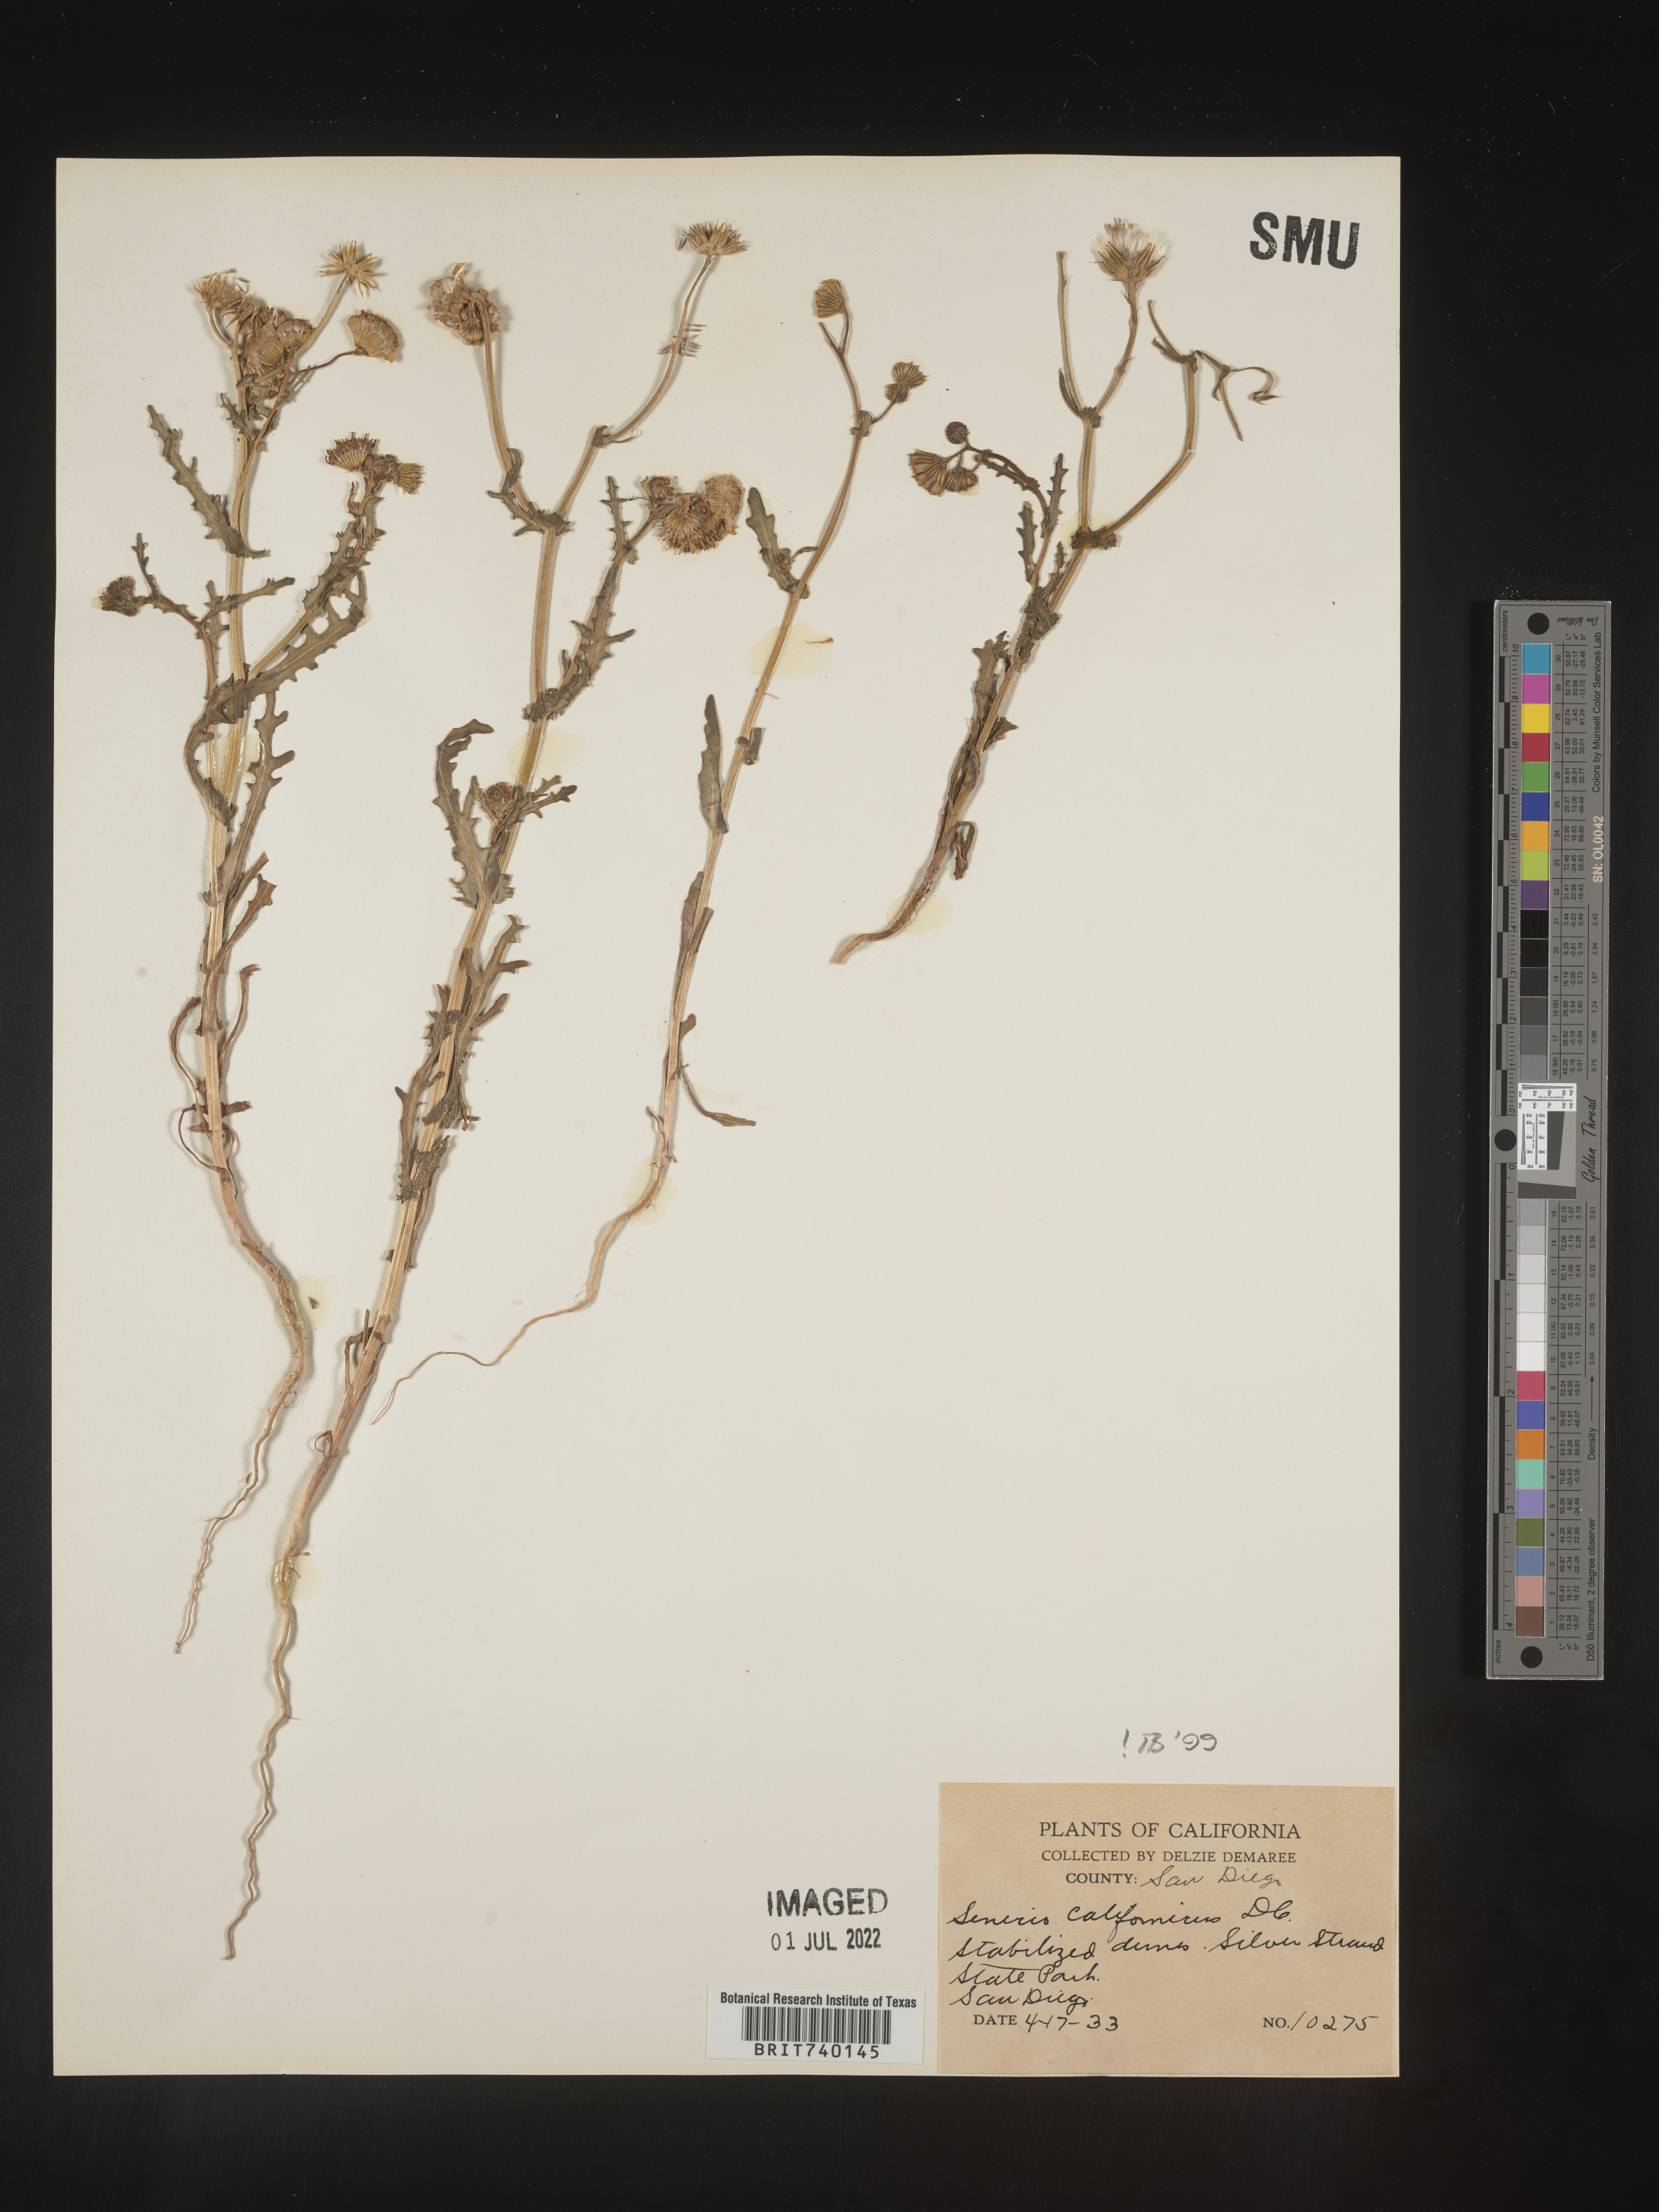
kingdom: Plantae
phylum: Tracheophyta
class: Magnoliopsida
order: Asterales
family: Asteraceae
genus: Senecio
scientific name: Senecio californicus
